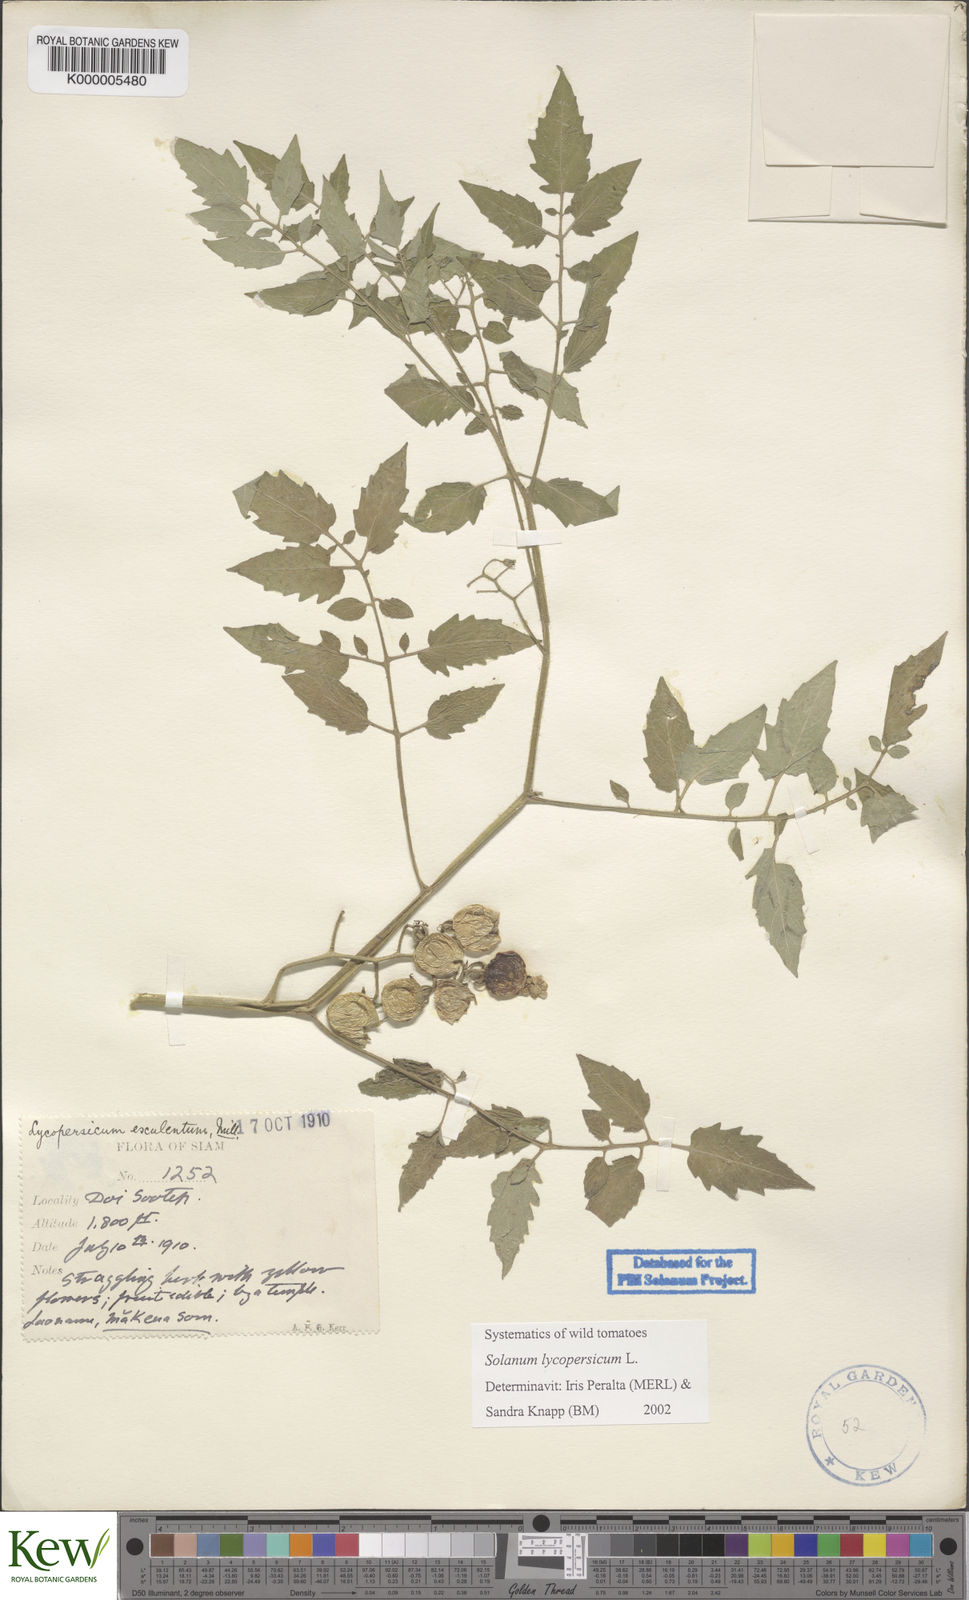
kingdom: Plantae
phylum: Tracheophyta
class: Magnoliopsida
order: Solanales
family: Solanaceae
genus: Solanum
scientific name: Solanum lycopersicum
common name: Garden tomato
